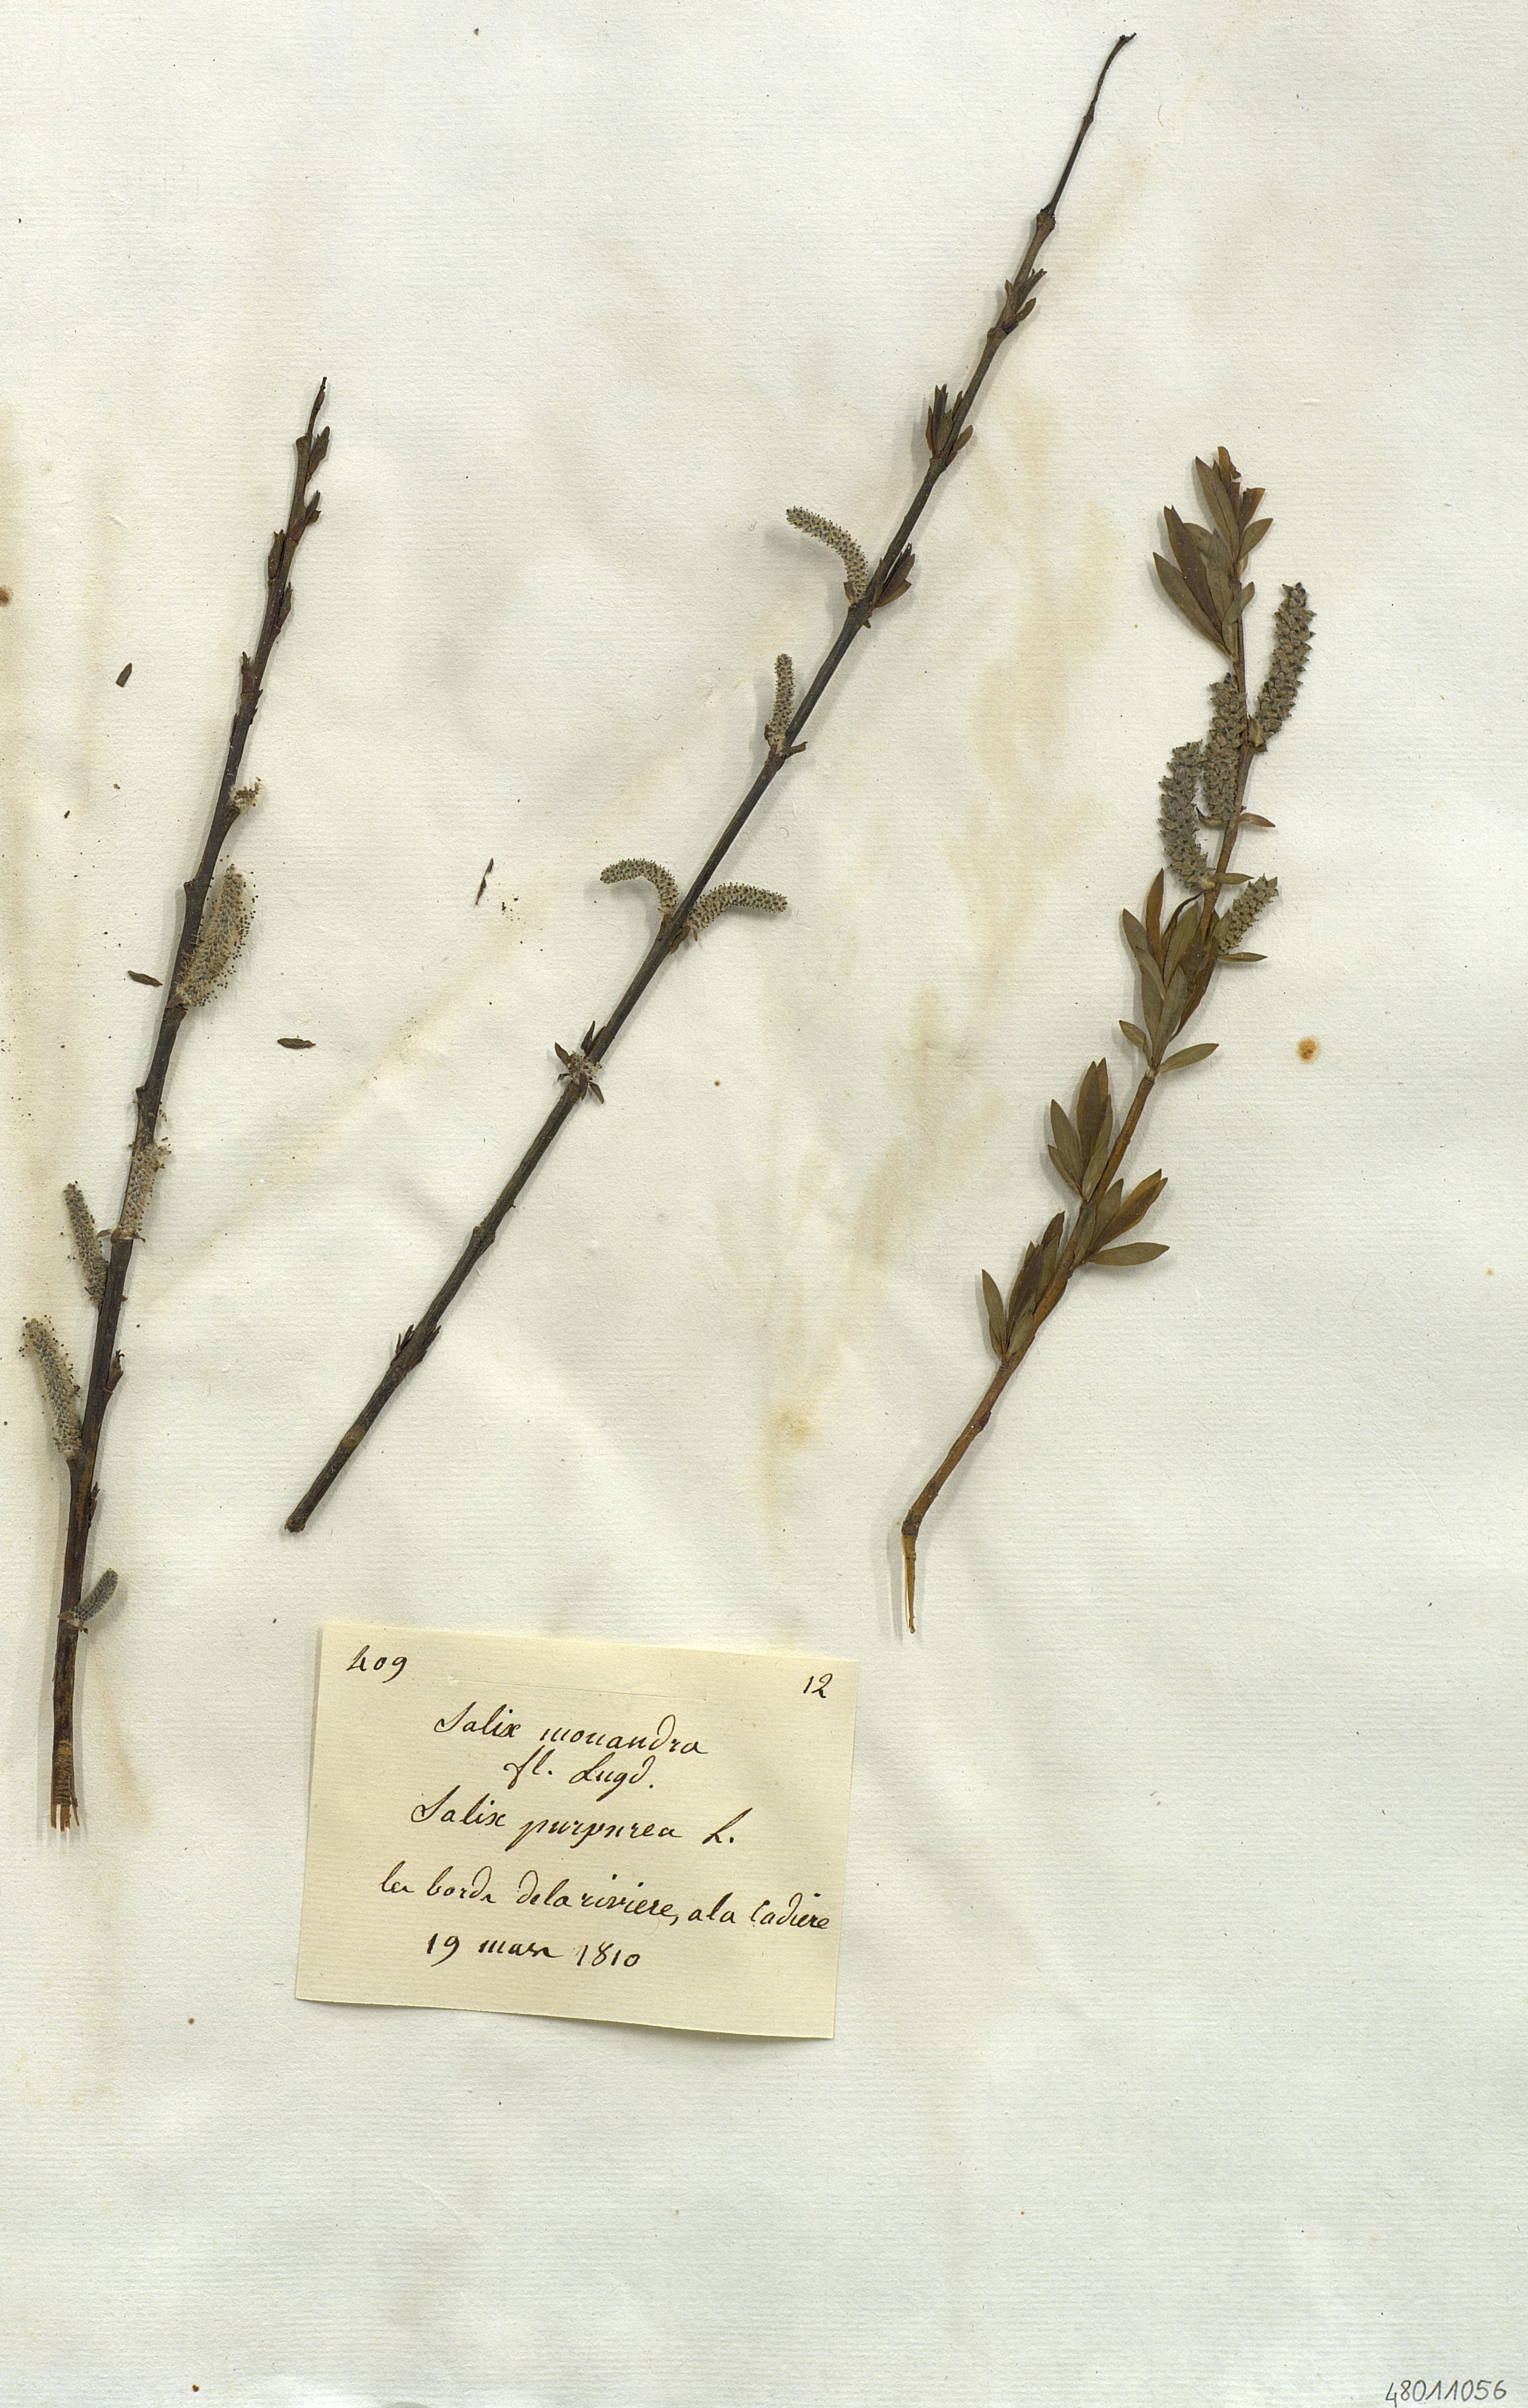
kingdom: Plantae
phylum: Tracheophyta
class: Magnoliopsida
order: Malpighiales
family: Salicaceae
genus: Salix
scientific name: Salix
